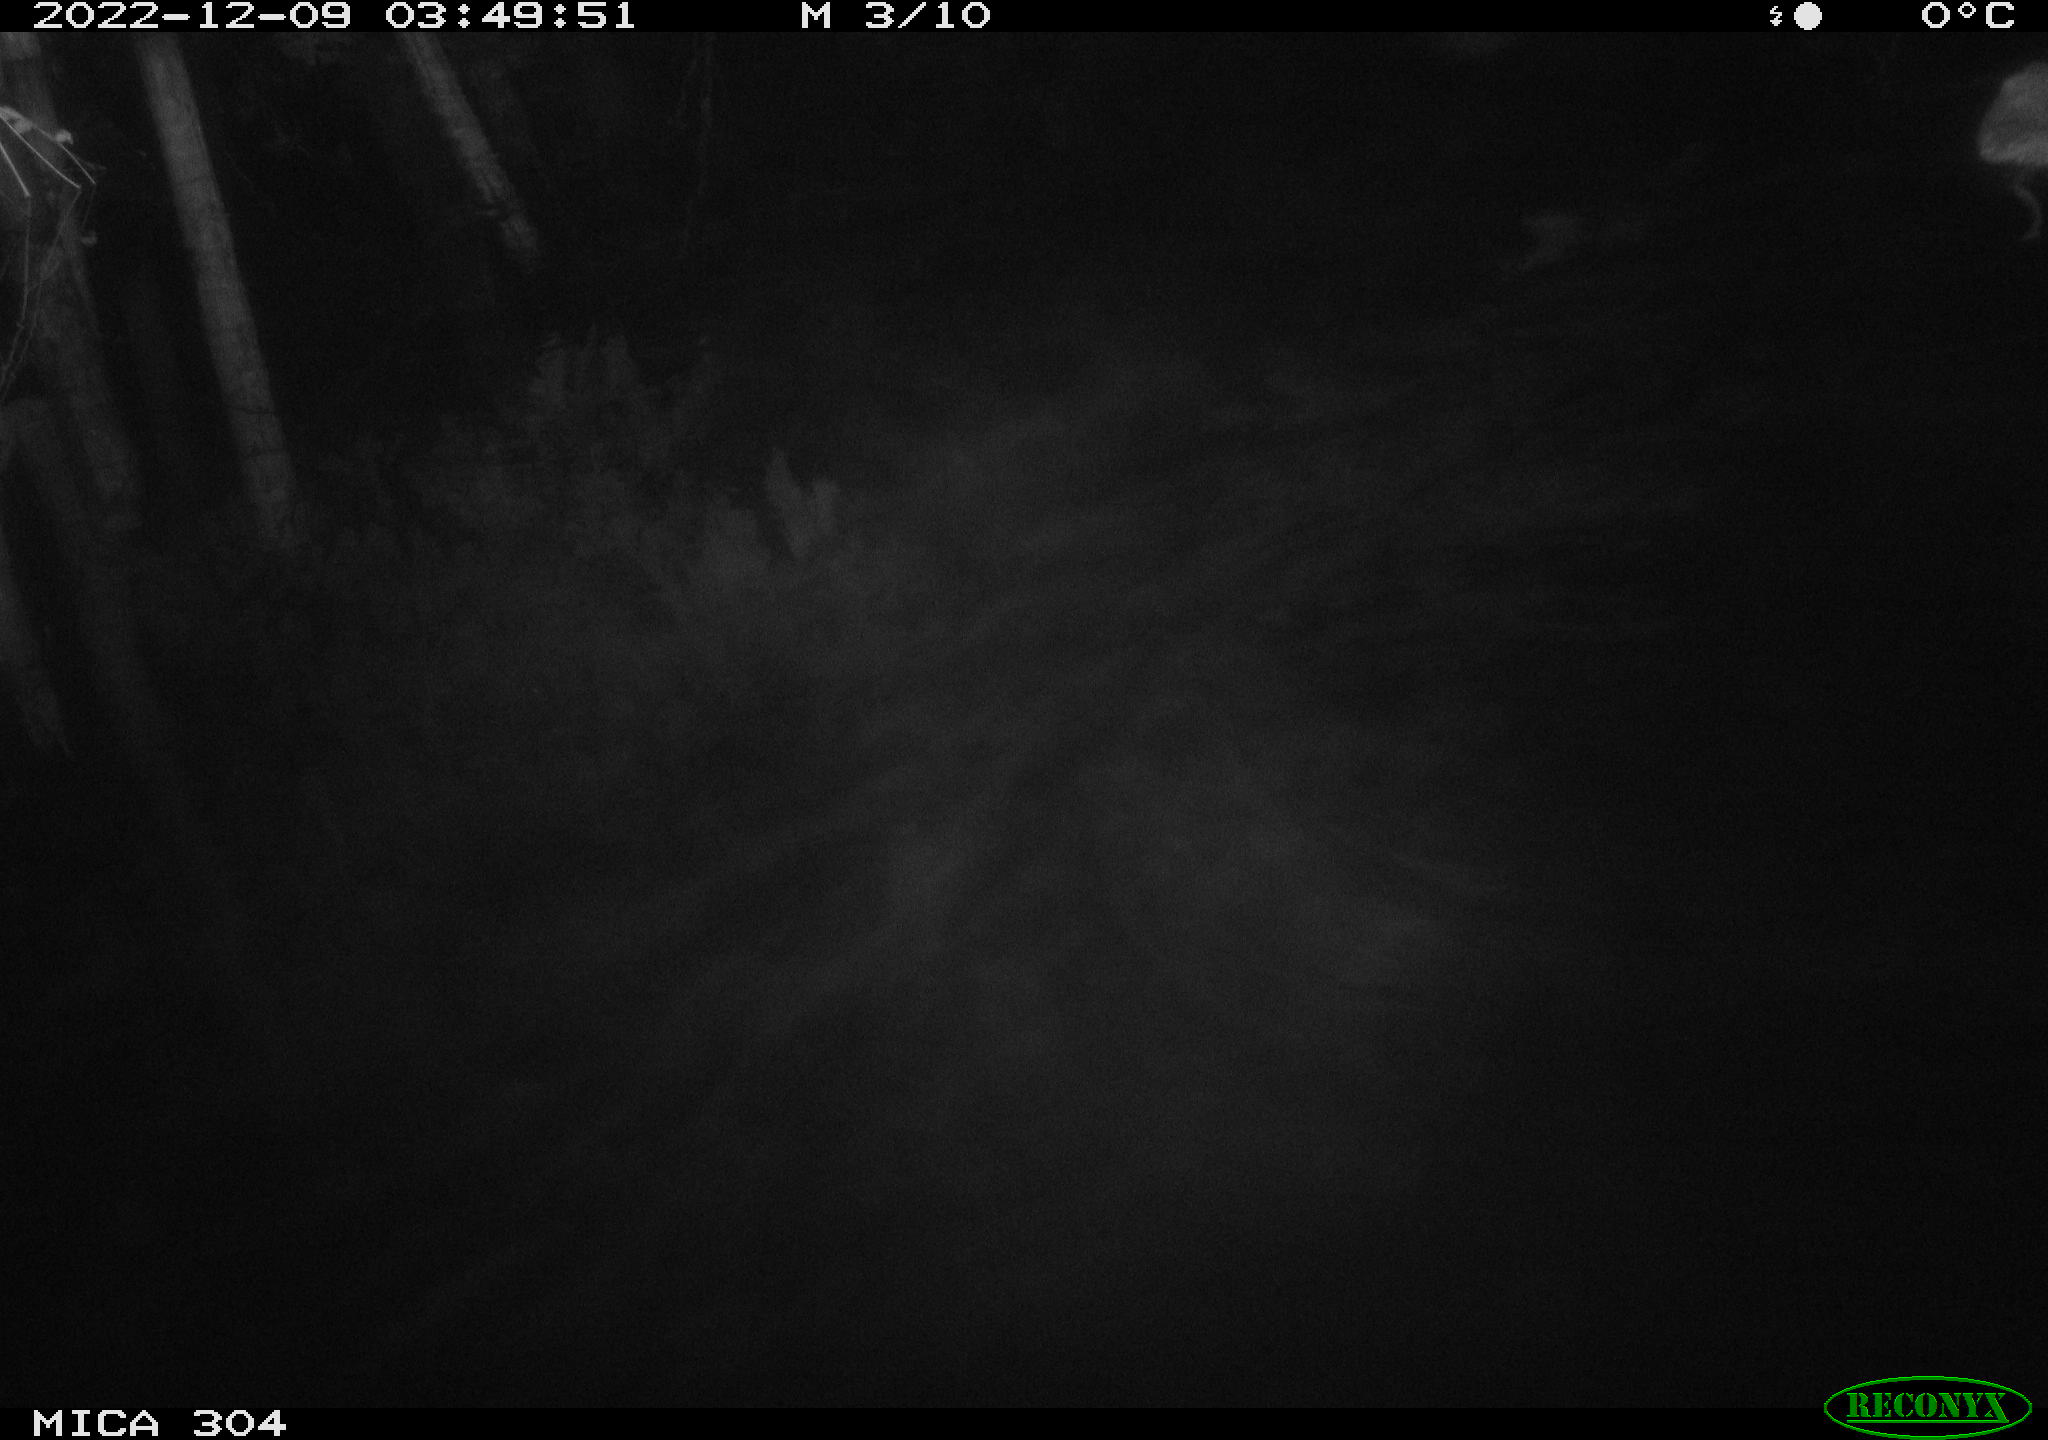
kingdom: Animalia
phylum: Chordata
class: Mammalia
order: Rodentia
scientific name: Rodentia
